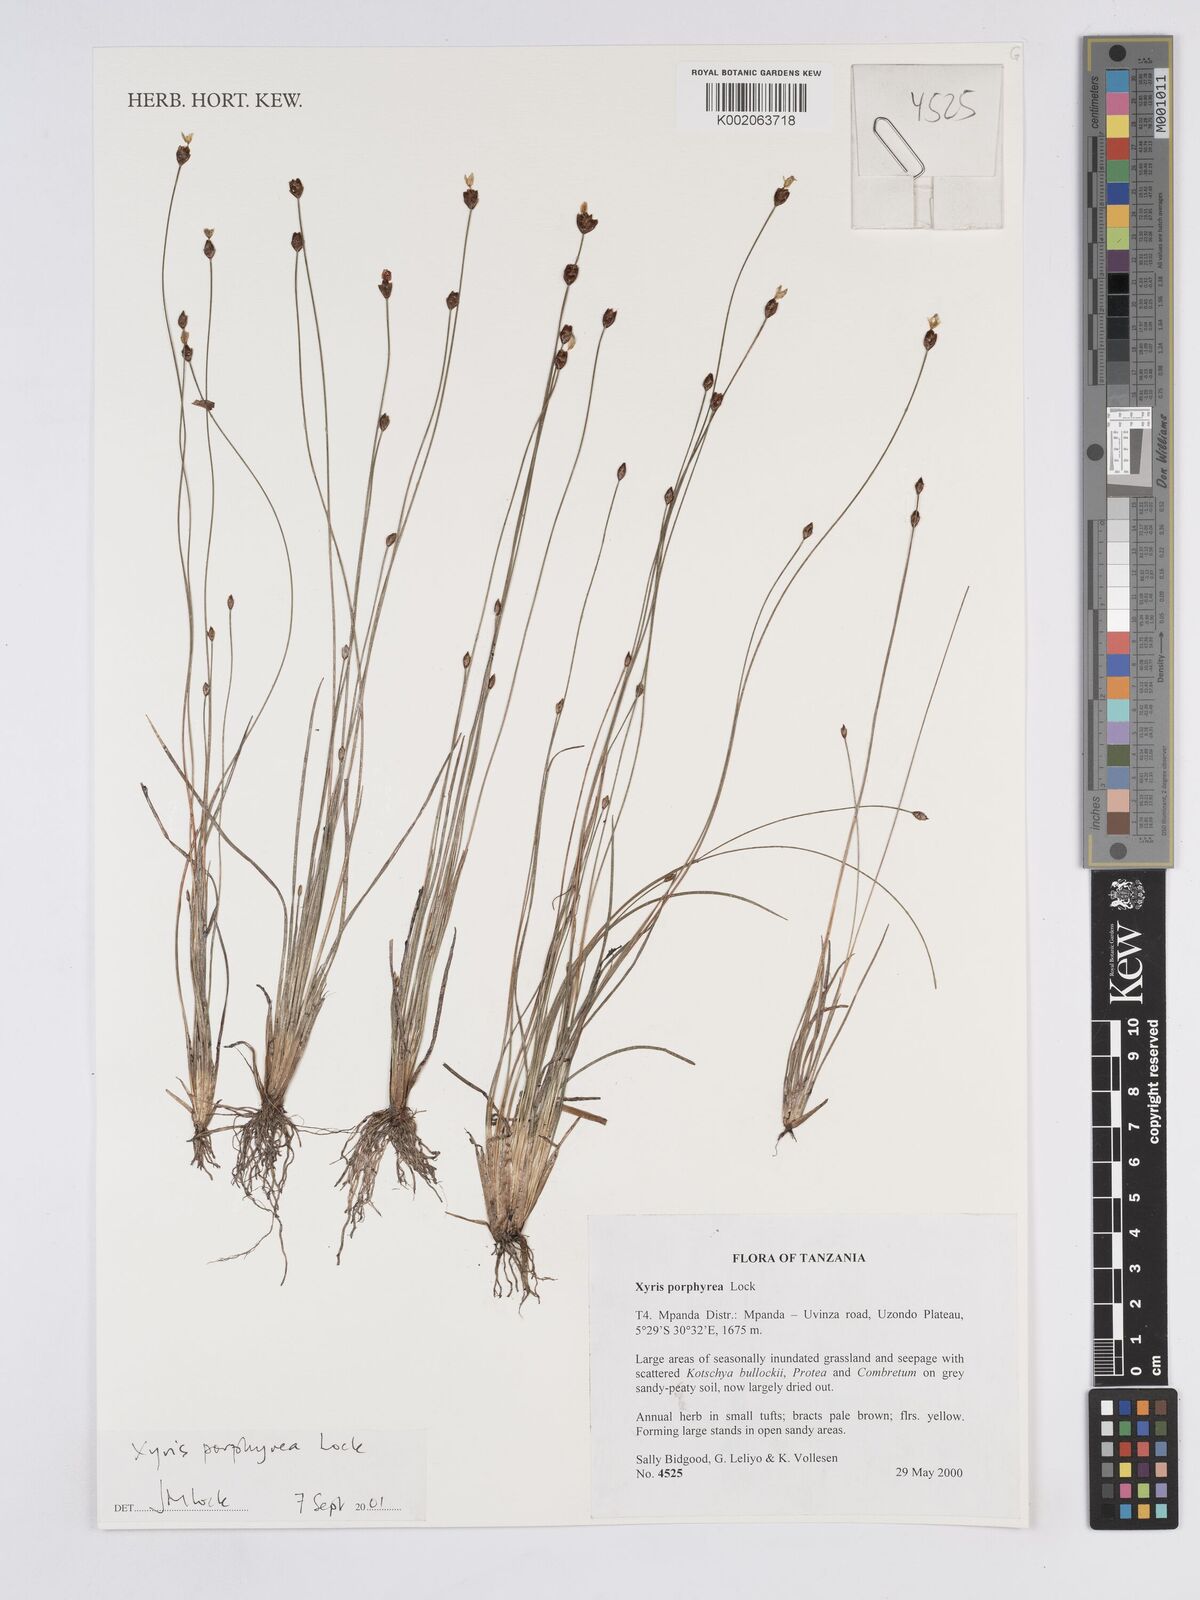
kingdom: Plantae
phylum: Tracheophyta
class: Liliopsida
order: Poales
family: Xyridaceae
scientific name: Xyridaceae
